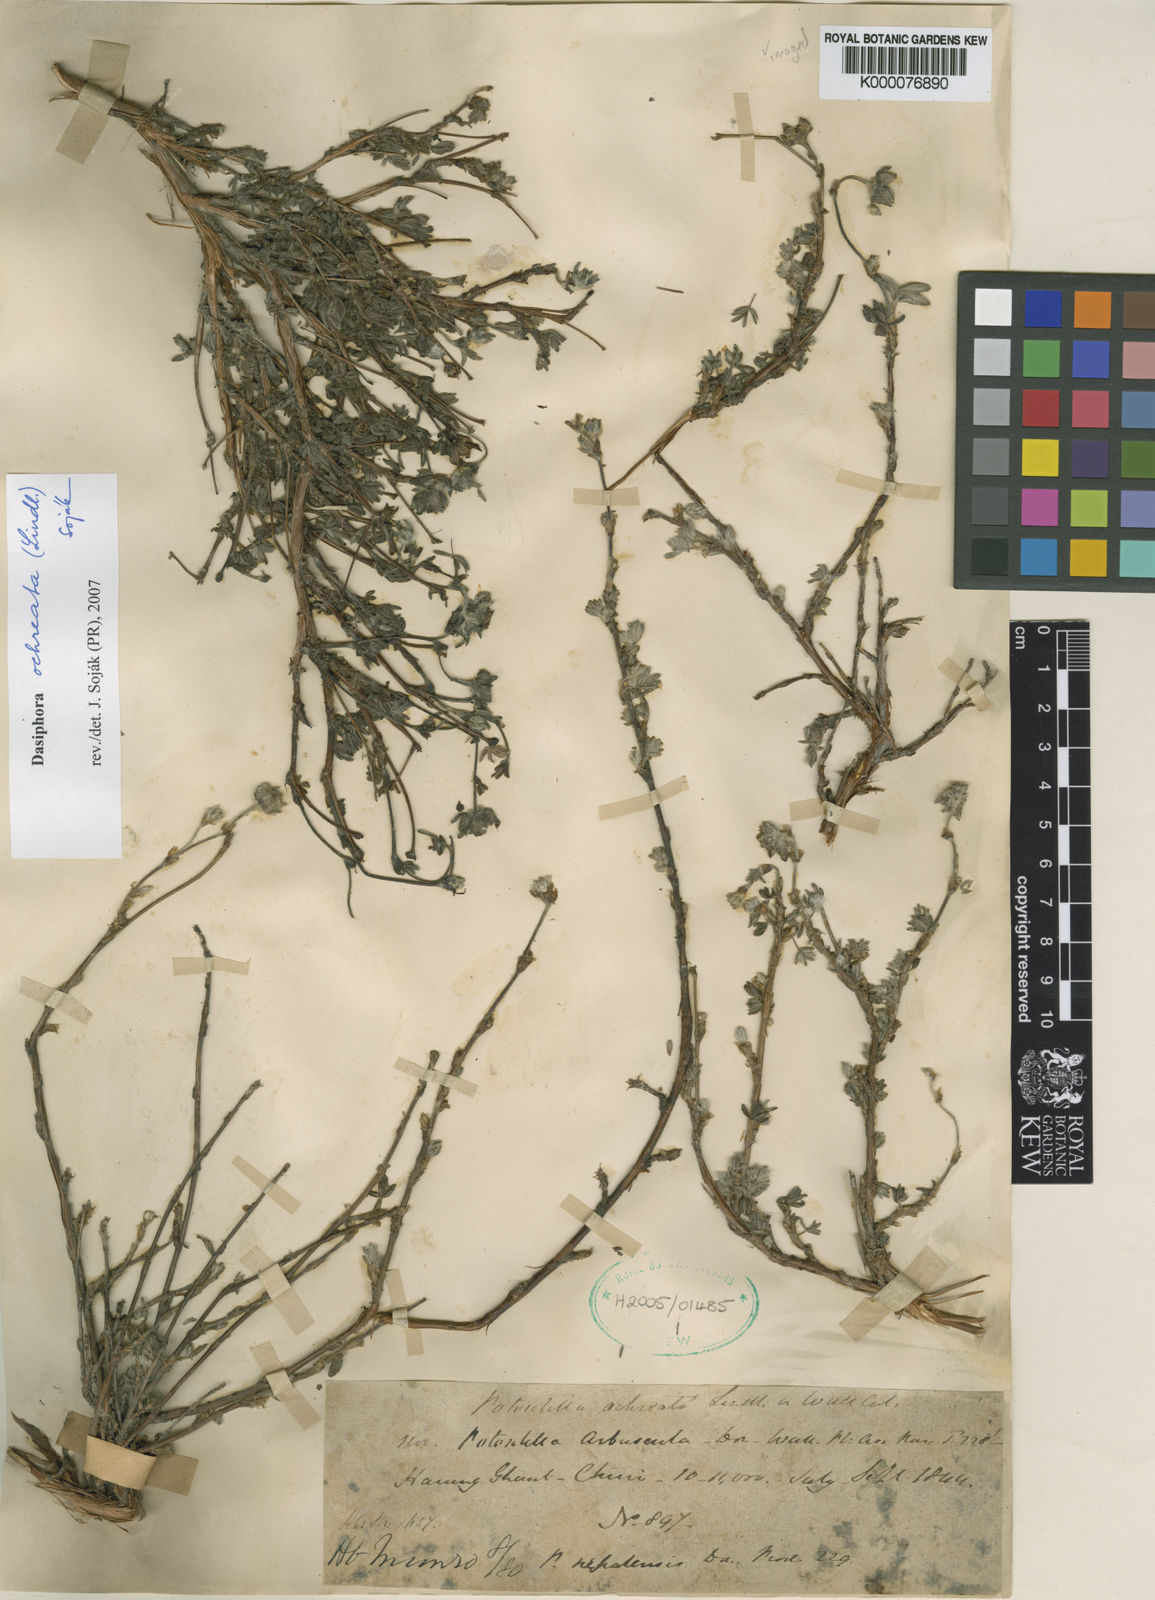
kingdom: Plantae
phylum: Tracheophyta
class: Magnoliopsida
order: Rosales
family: Rosaceae
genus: Dasiphora
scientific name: Dasiphora fruticosa
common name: Shrubby cinquefoil
